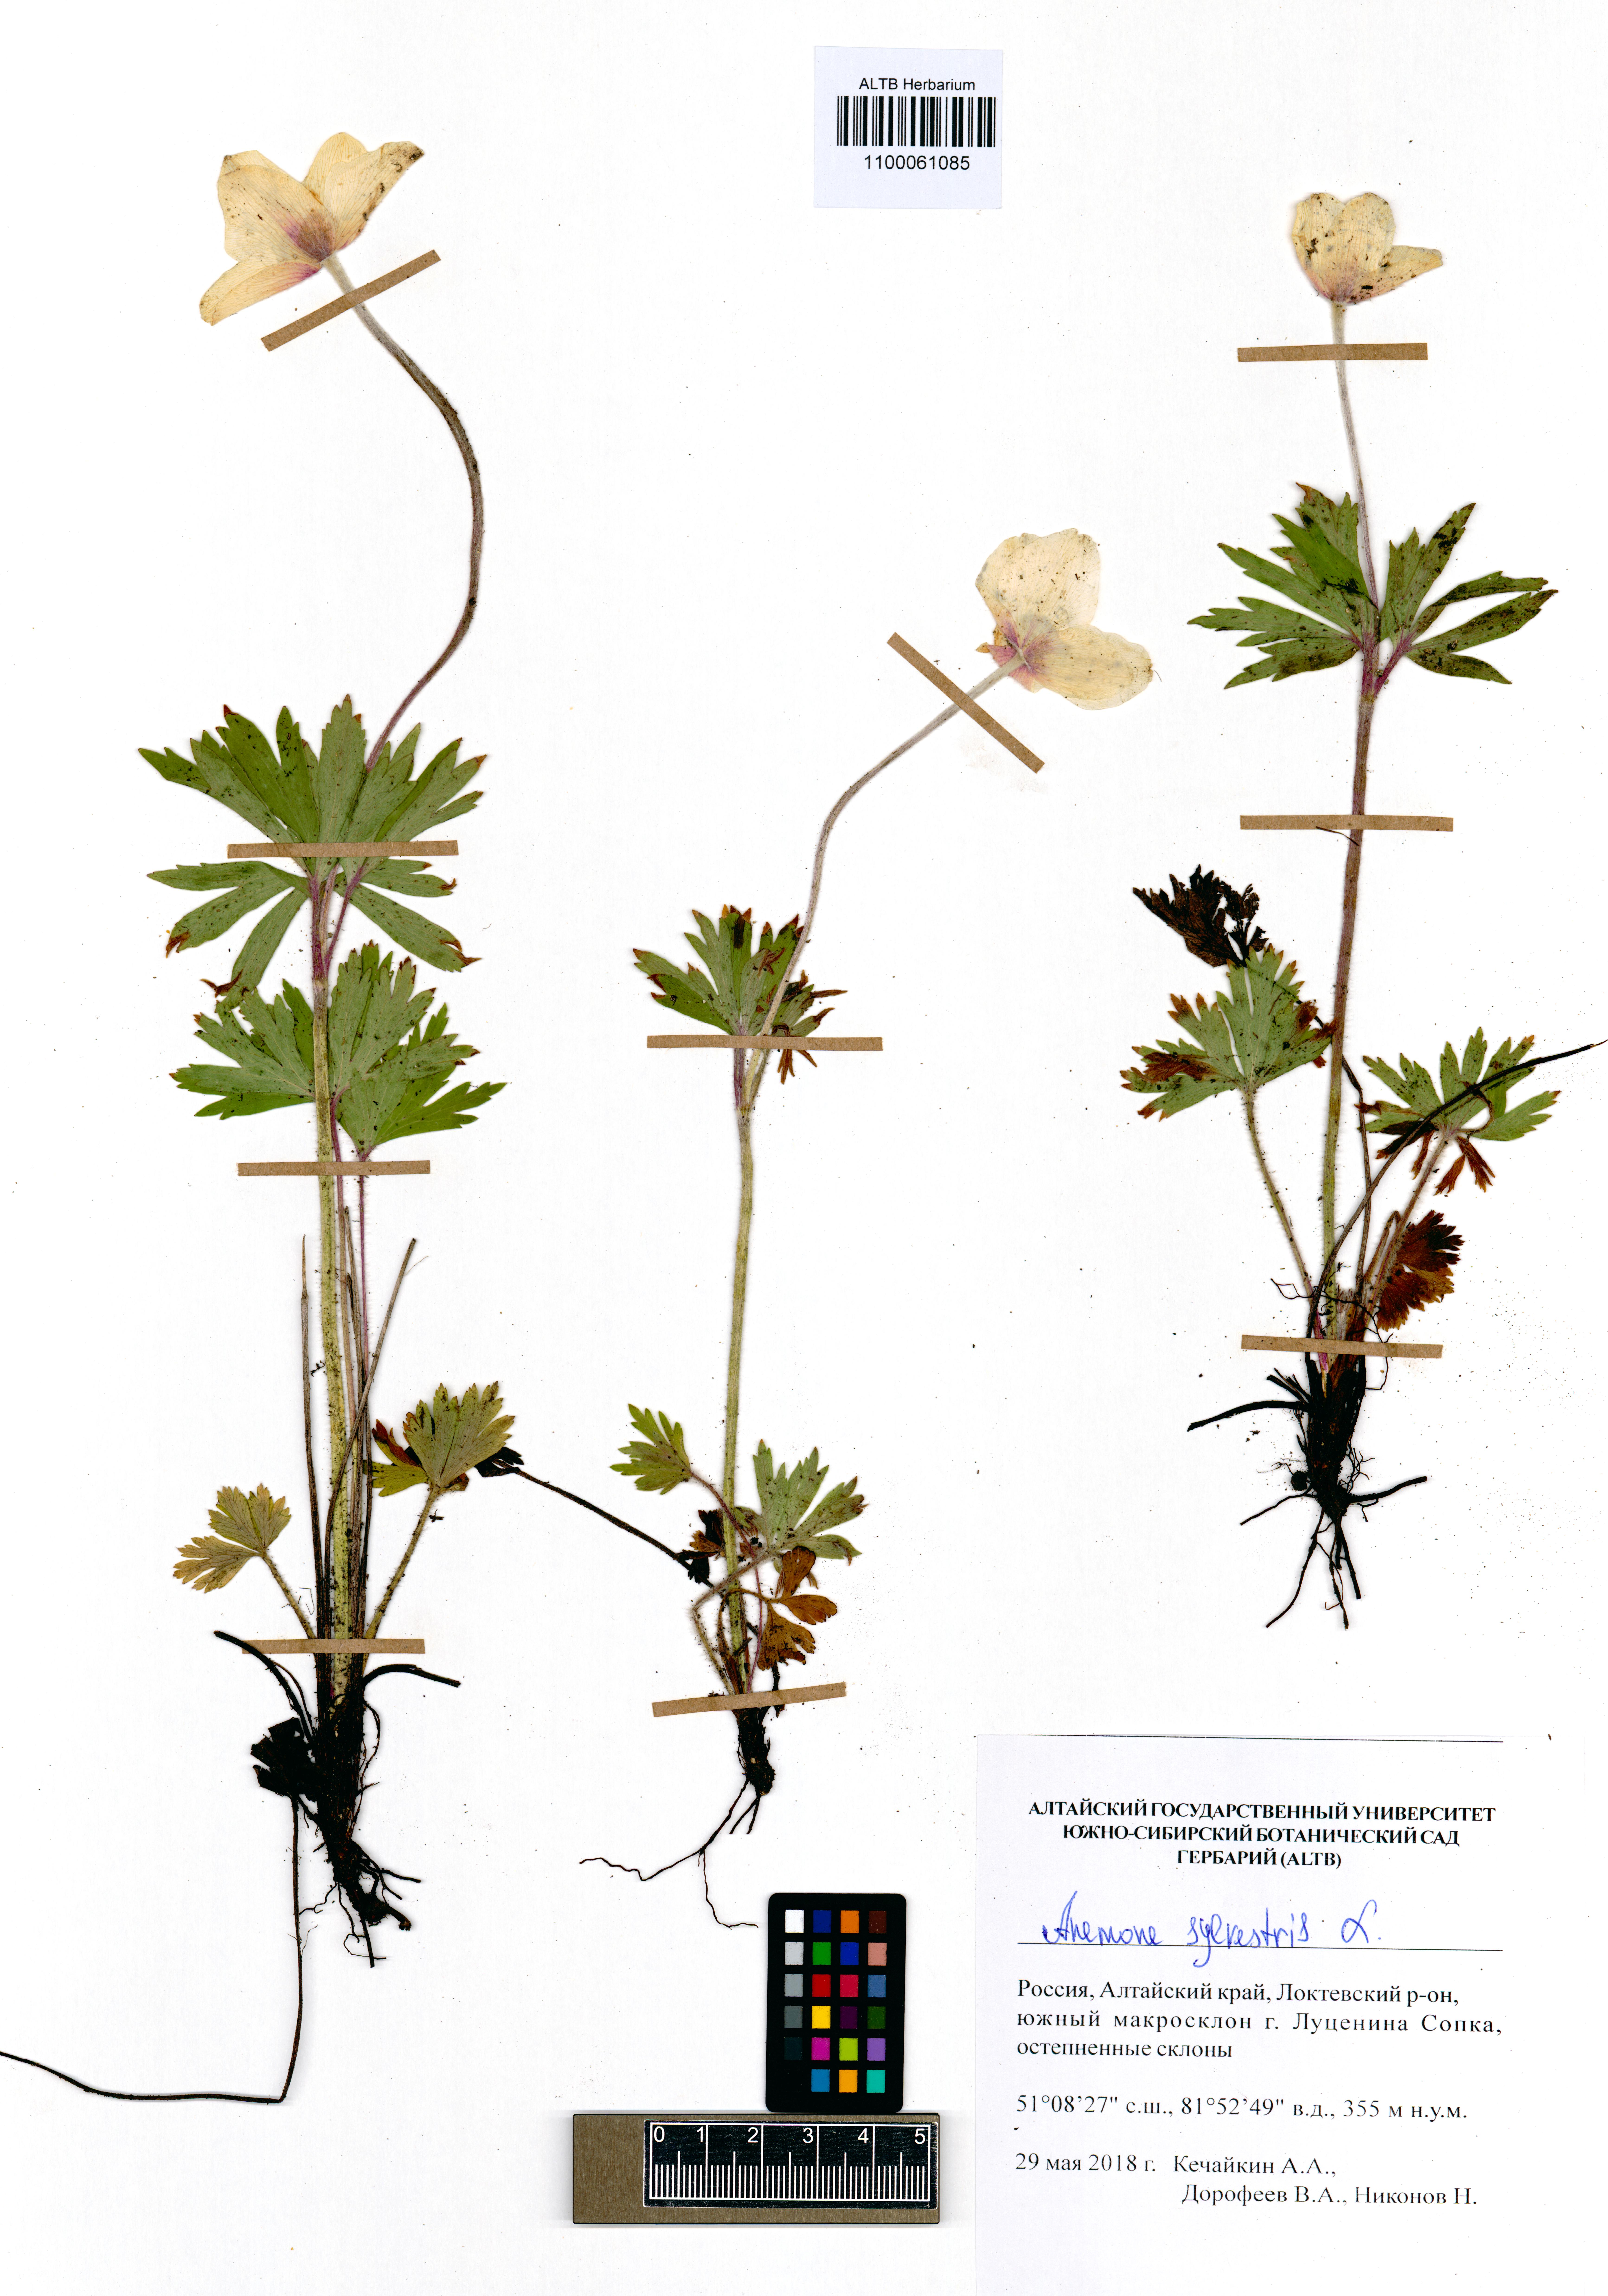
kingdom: Plantae
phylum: Tracheophyta
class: Magnoliopsida
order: Ranunculales
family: Ranunculaceae
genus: Anemone
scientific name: Anemone sylvestris
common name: Snowdrop anemone
